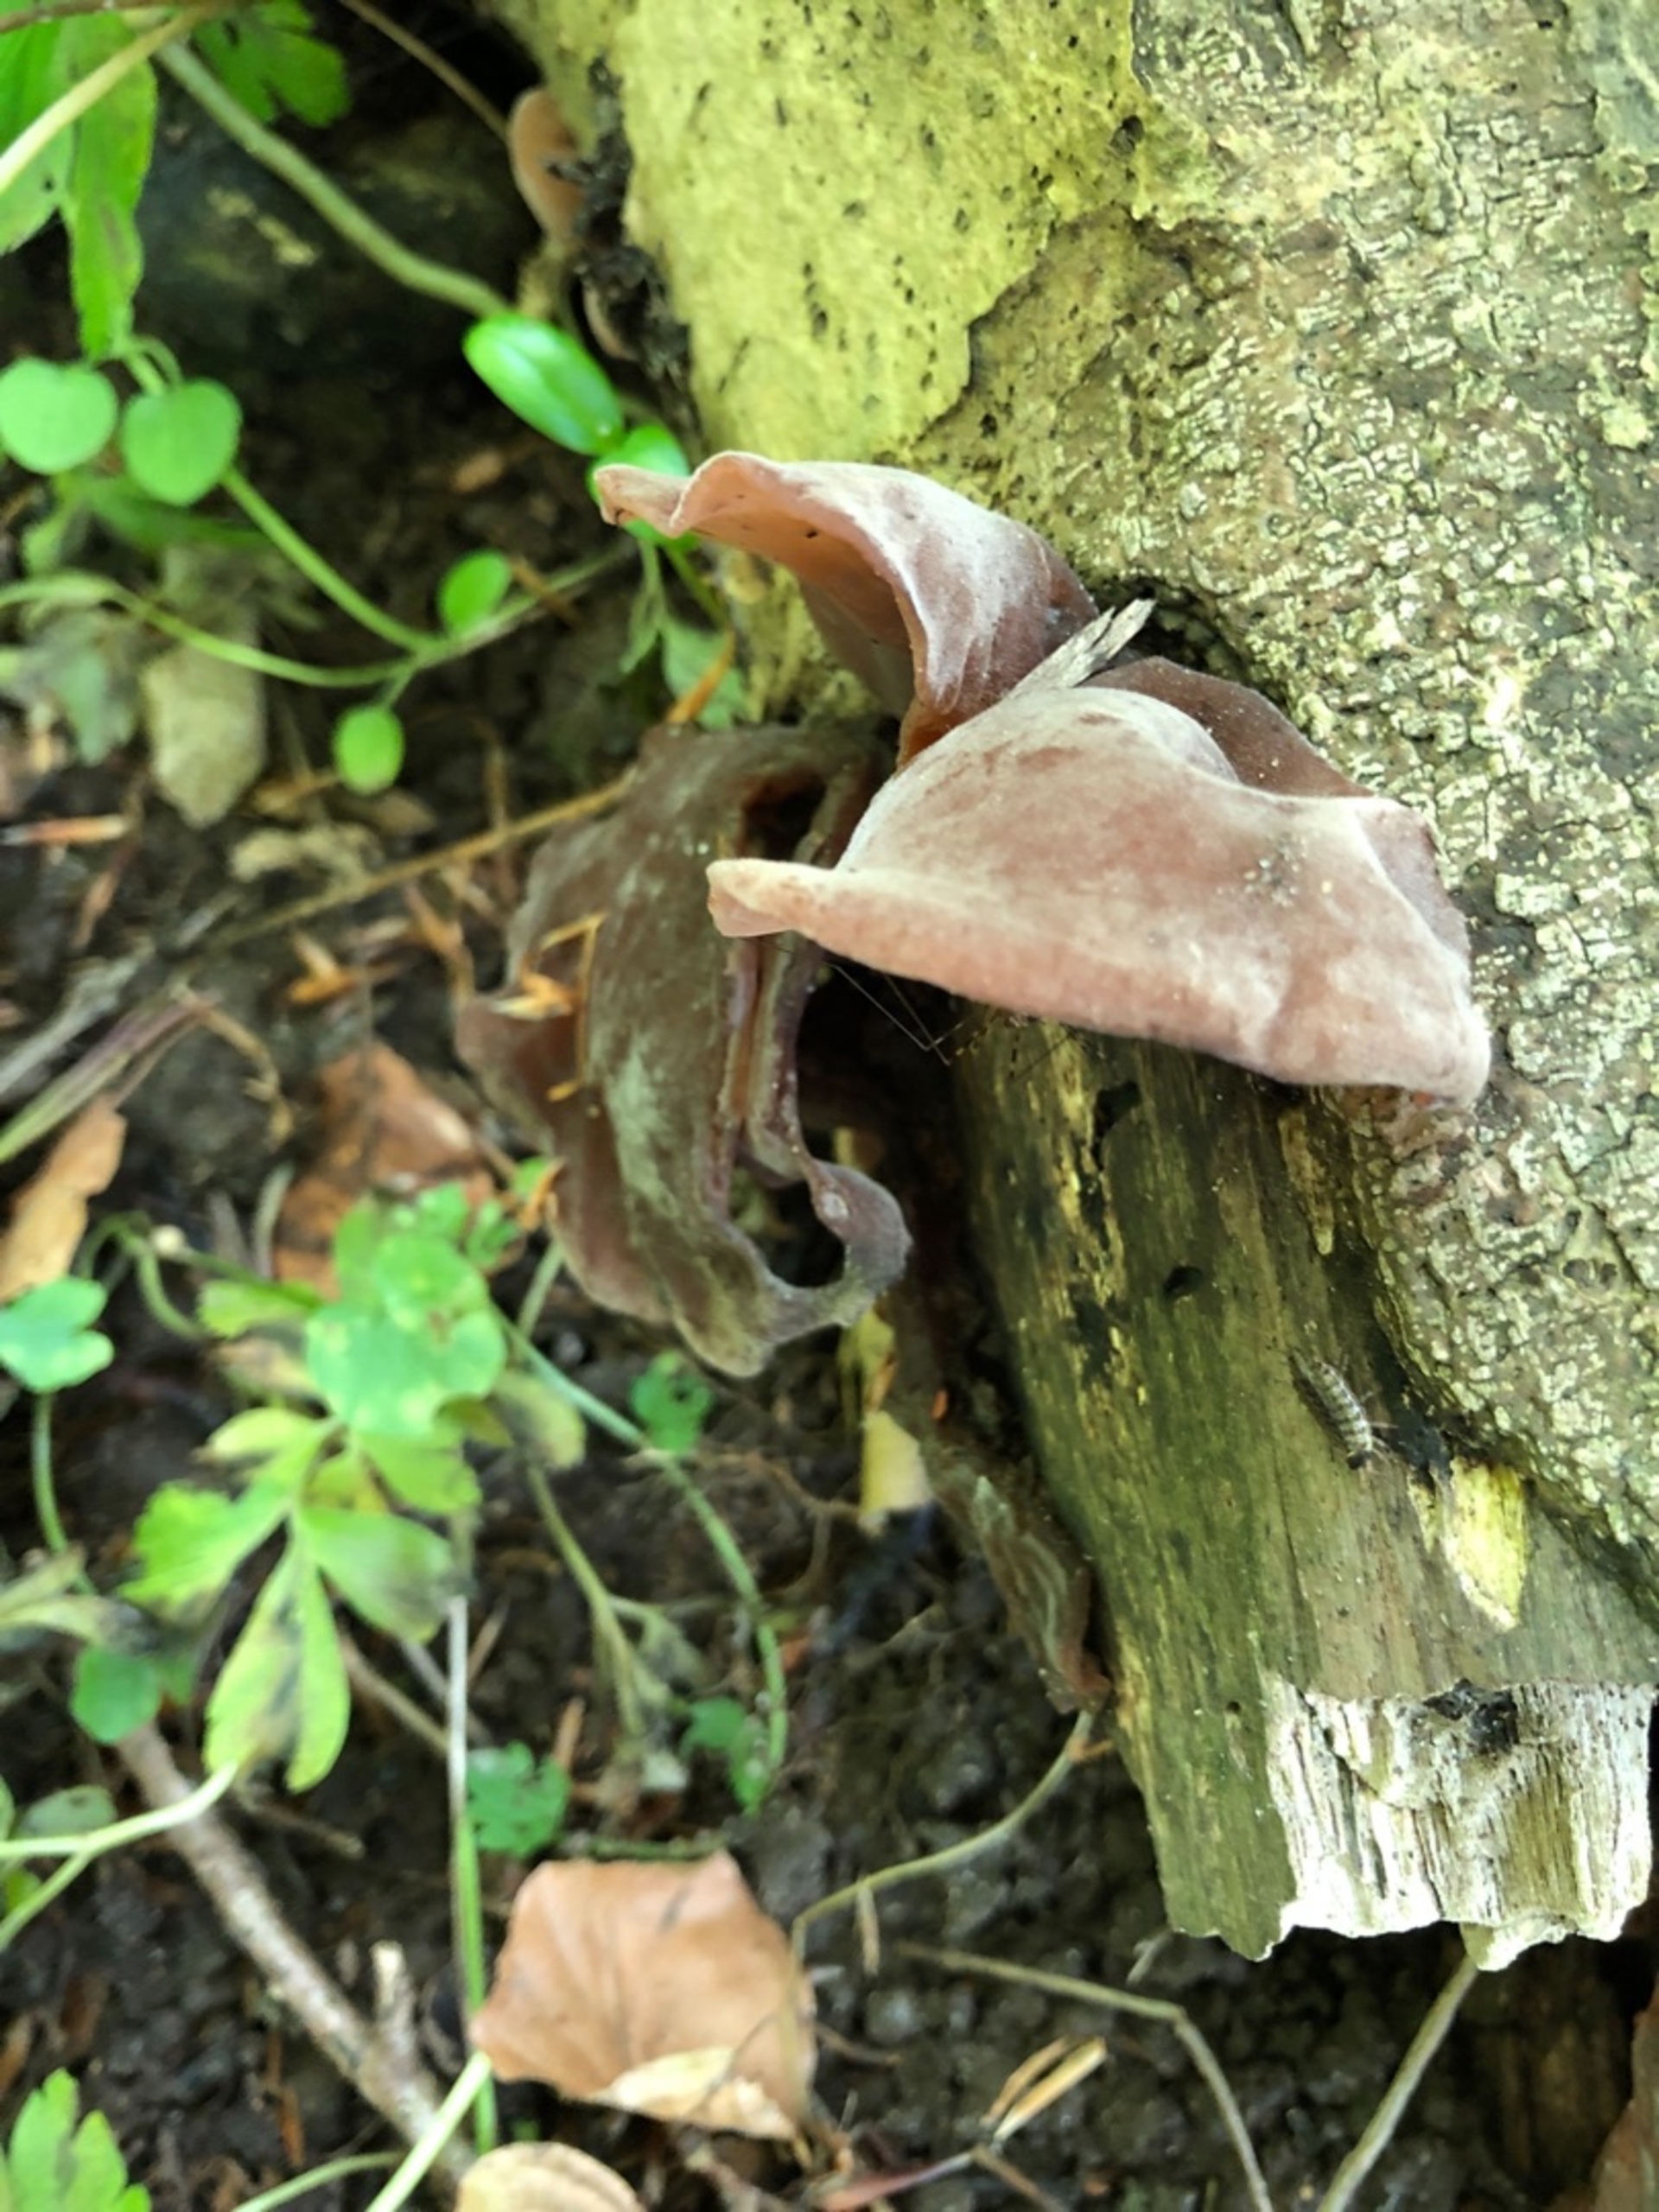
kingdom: Fungi
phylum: Basidiomycota
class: Agaricomycetes
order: Auriculariales
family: Auriculariaceae
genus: Auricularia
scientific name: Auricularia auricula-judae
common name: Almindelig judasøre
